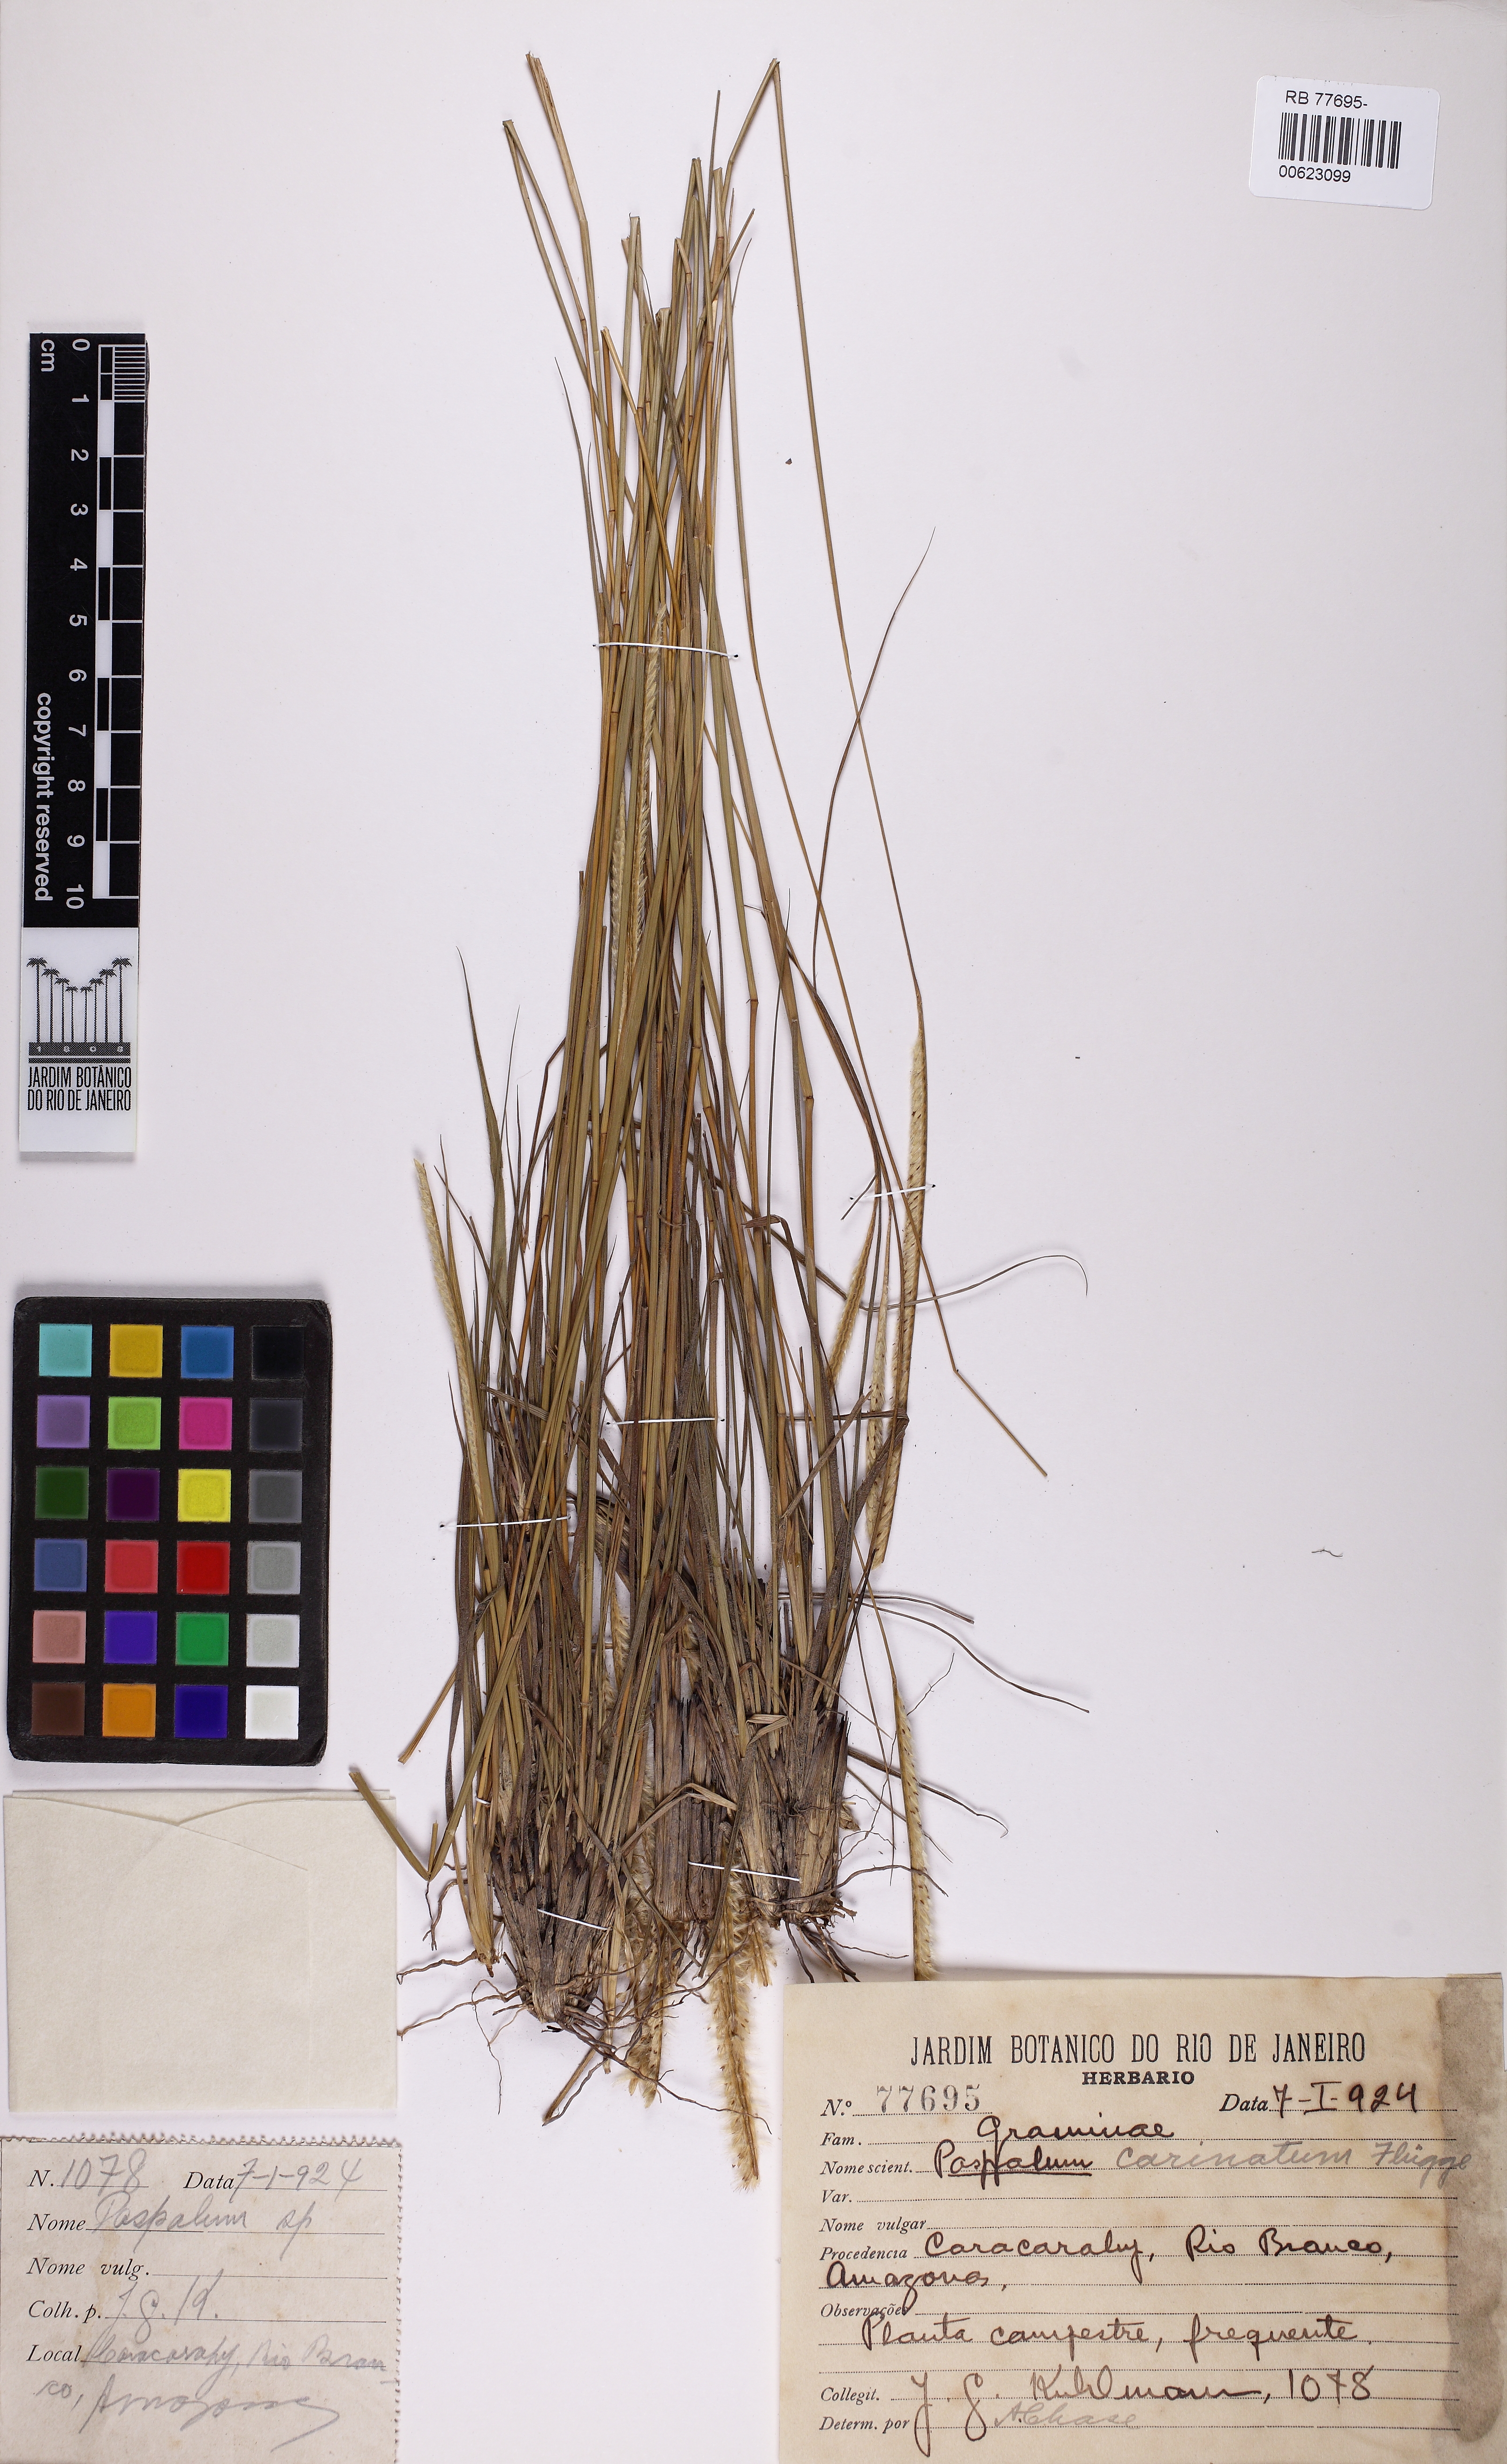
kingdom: Plantae
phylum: Tracheophyta
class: Liliopsida
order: Poales
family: Poaceae
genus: Paspalum
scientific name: Paspalum carinatum
